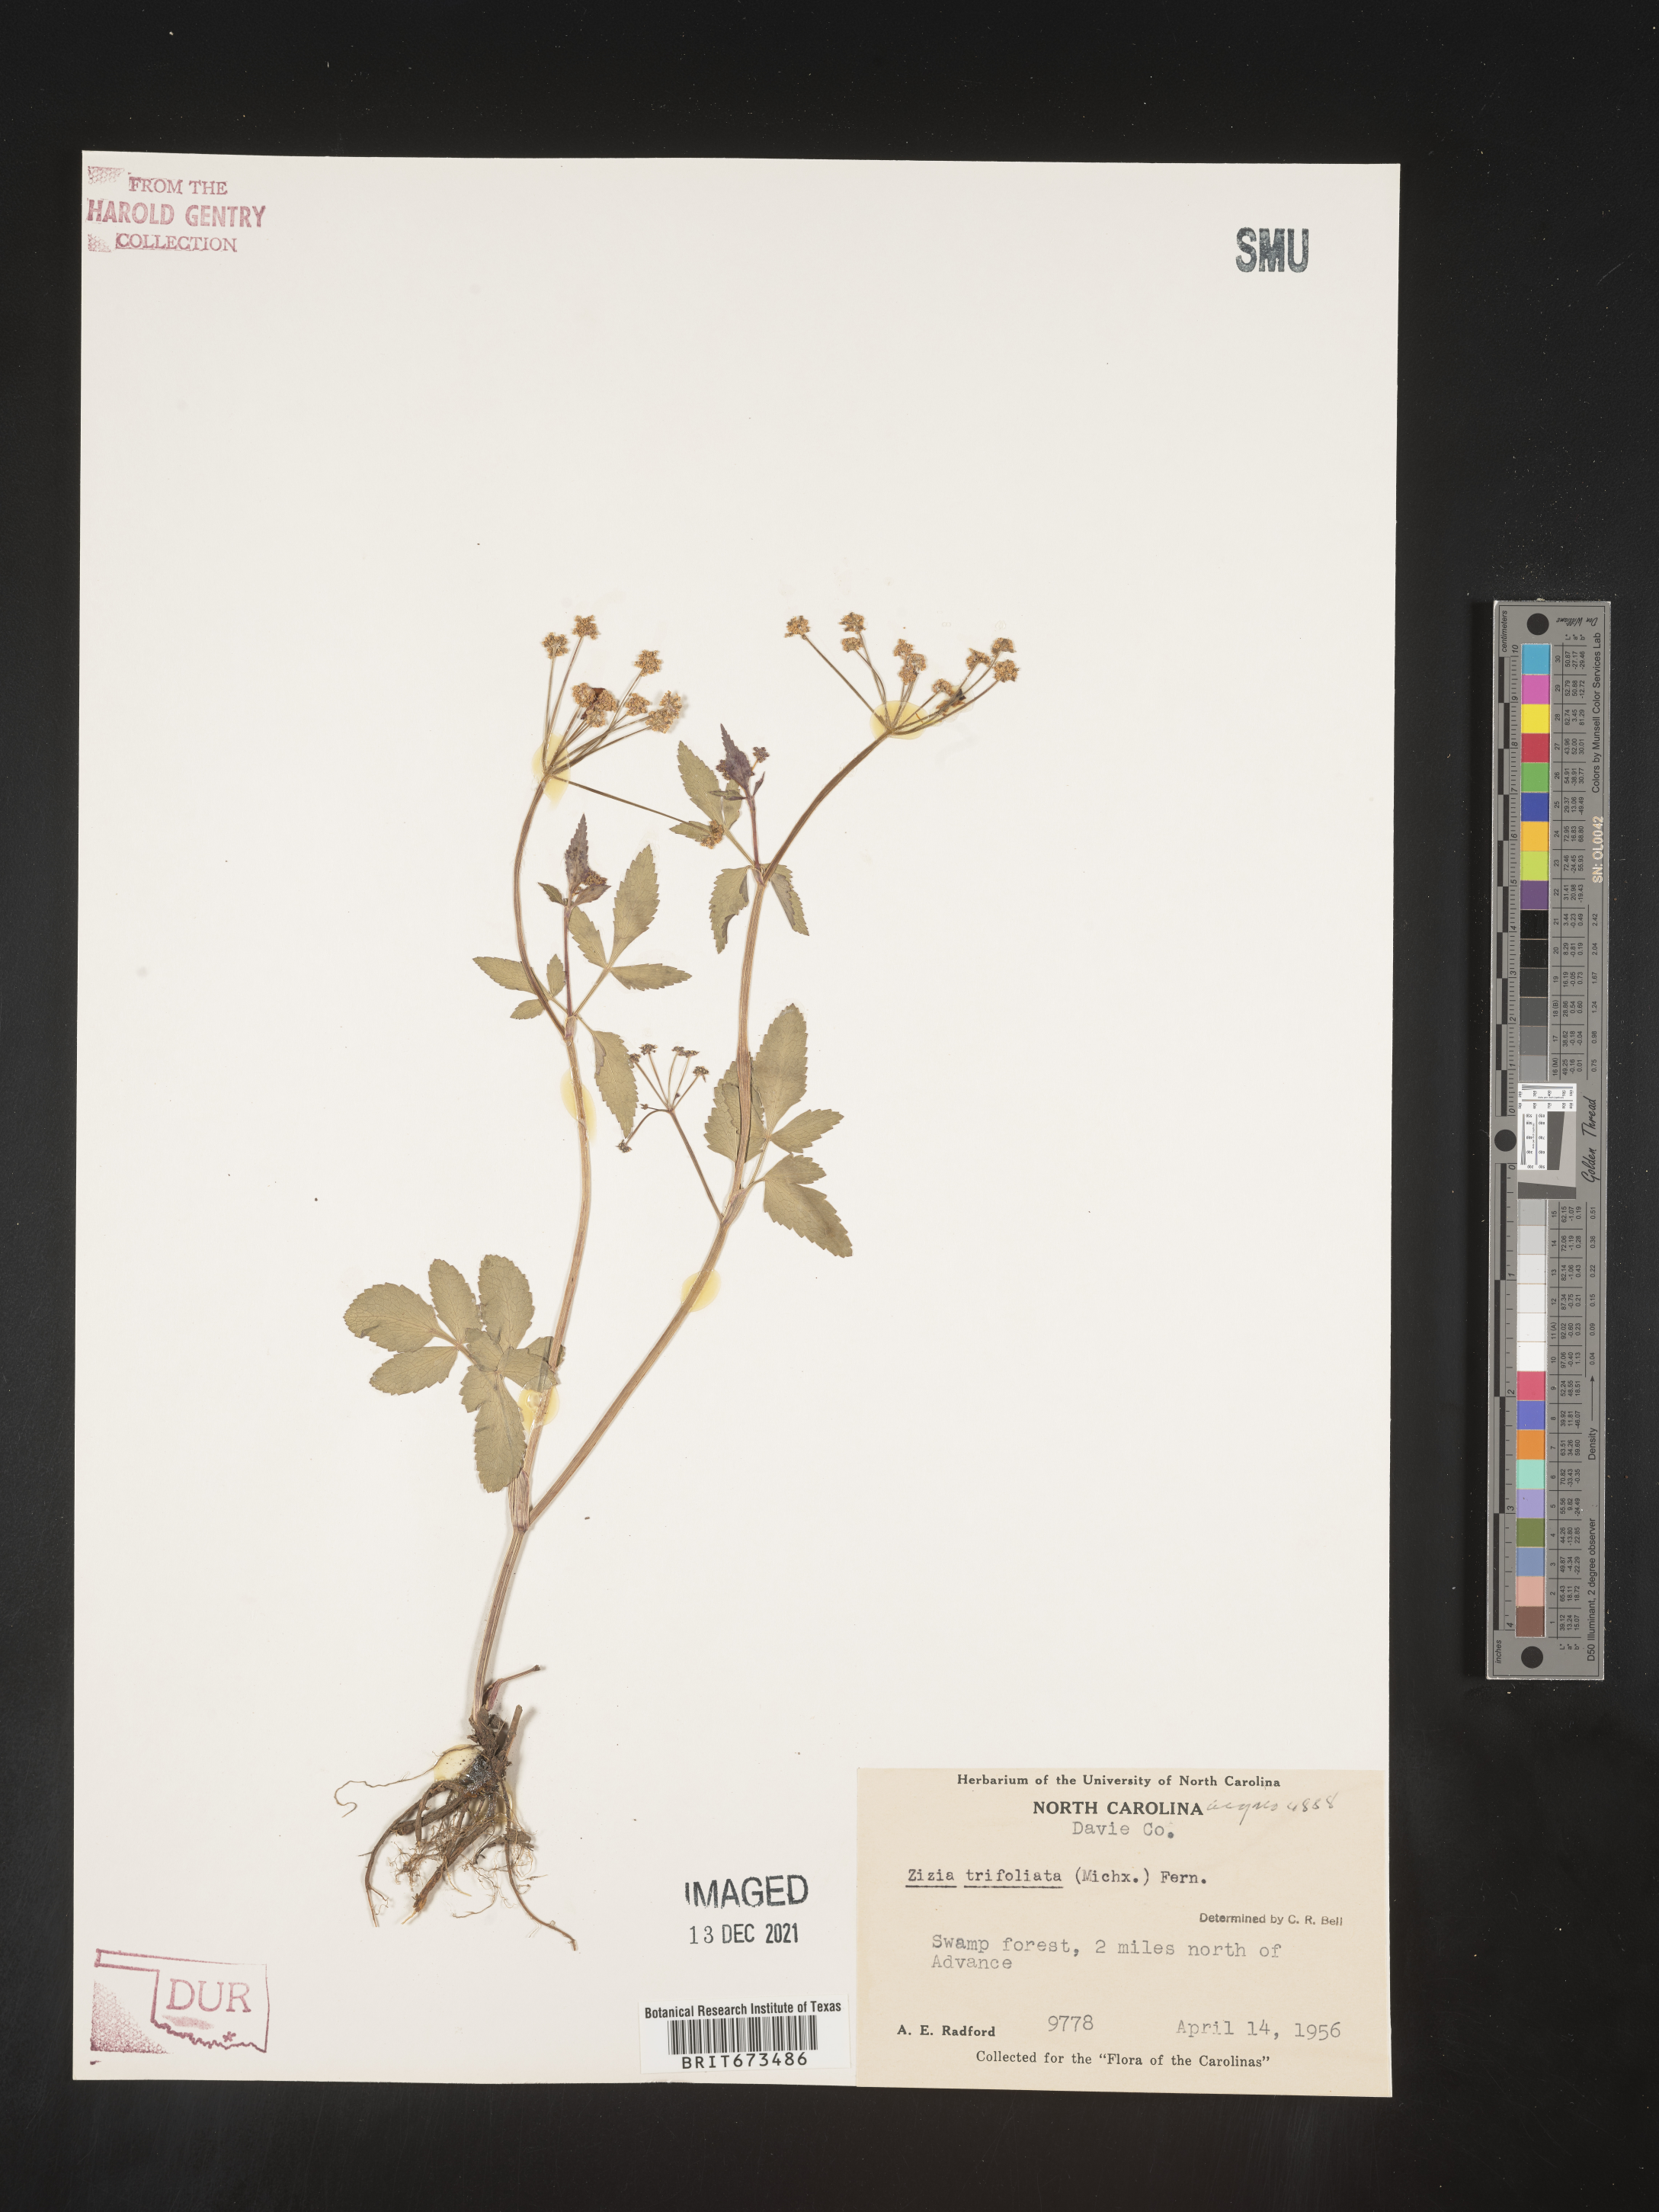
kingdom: Plantae
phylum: Tracheophyta
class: Magnoliopsida
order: Apiales
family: Apiaceae
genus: Zizia
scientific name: Zizia trifoliata
